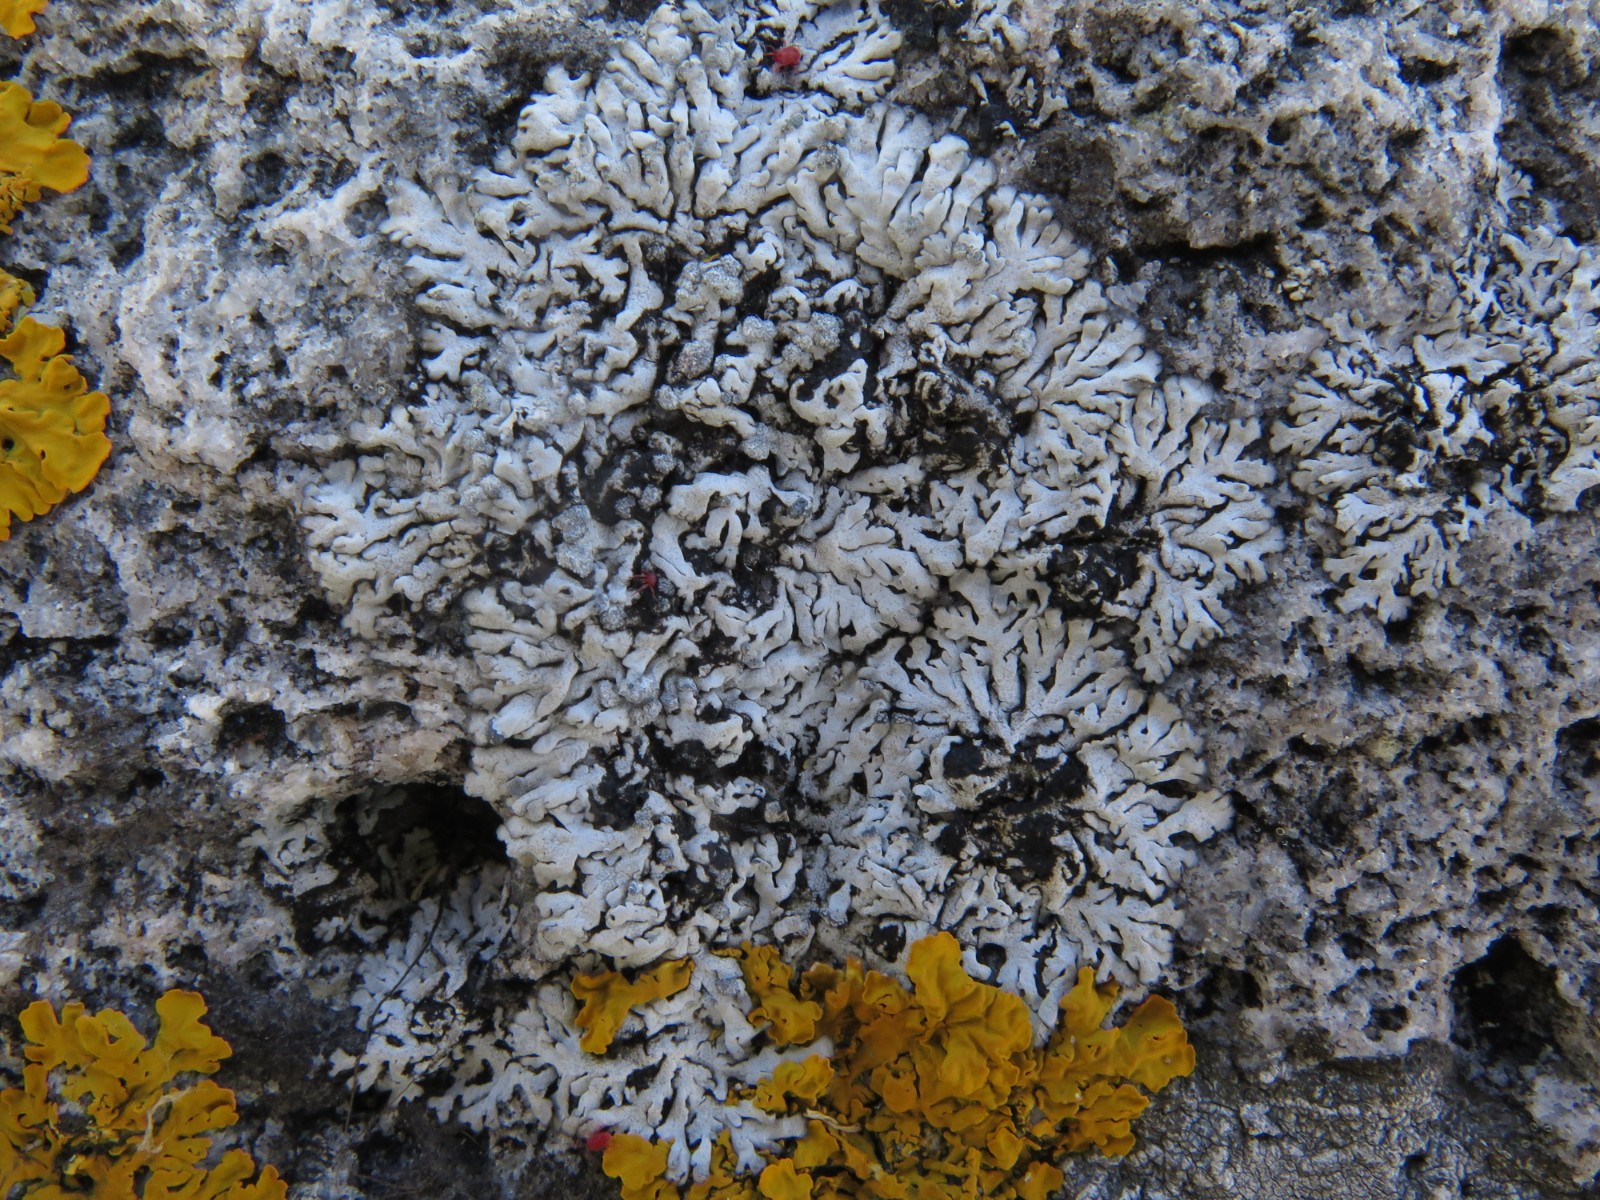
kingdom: Fungi
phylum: Ascomycota
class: Lecanoromycetes
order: Caliciales
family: Physciaceae
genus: Physcia
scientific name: Physcia dubia
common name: fuglestens-rosetlav
